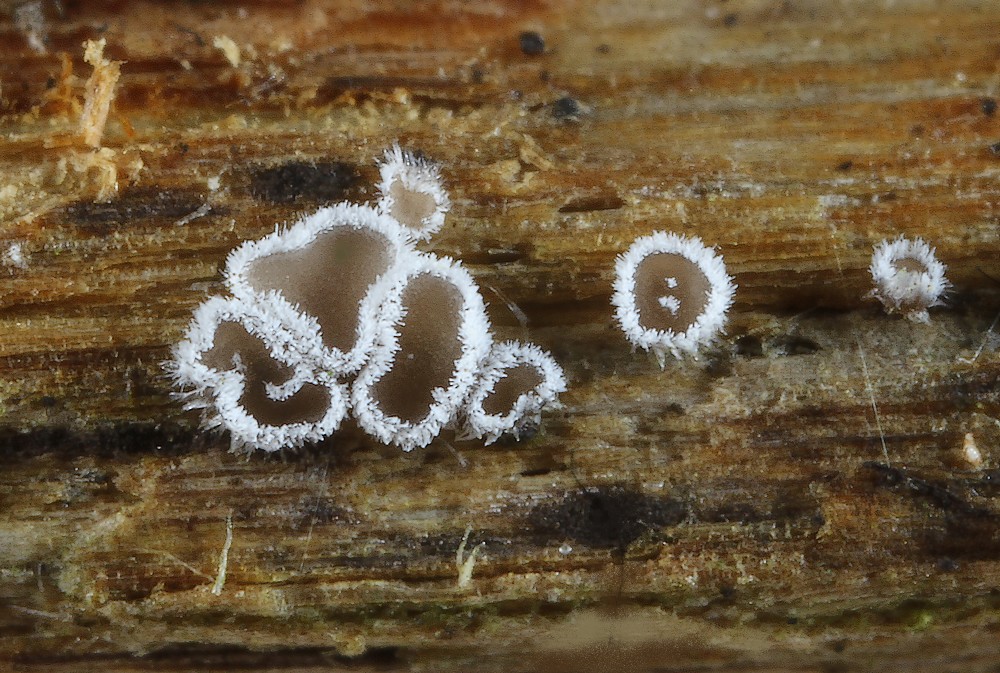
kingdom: Fungi
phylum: Basidiomycota
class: Agaricomycetes
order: Agaricales
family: Niaceae
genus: Lachnella
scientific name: Lachnella alboviolascens
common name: grå frynserede
